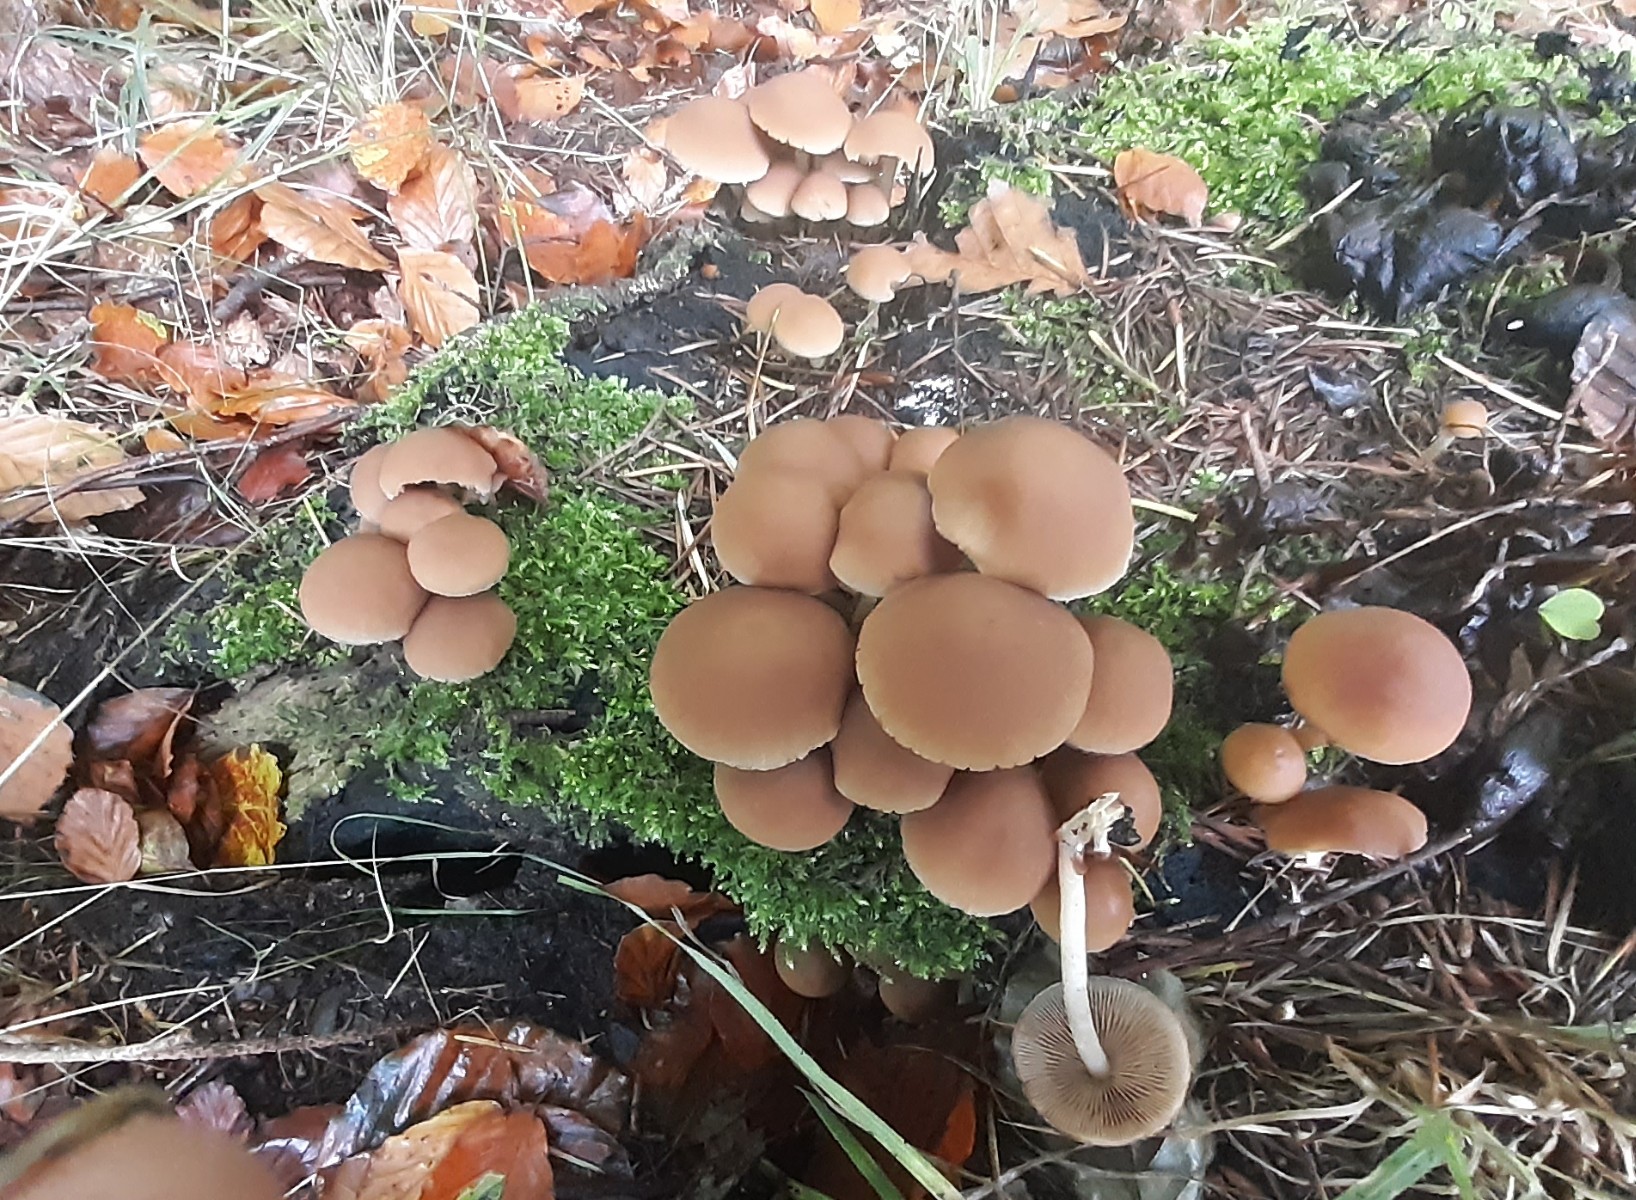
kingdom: Fungi
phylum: Basidiomycota
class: Agaricomycetes
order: Agaricales
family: Psathyrellaceae
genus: Psathyrella
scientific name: Psathyrella piluliformis
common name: lysstokket mørkhat
